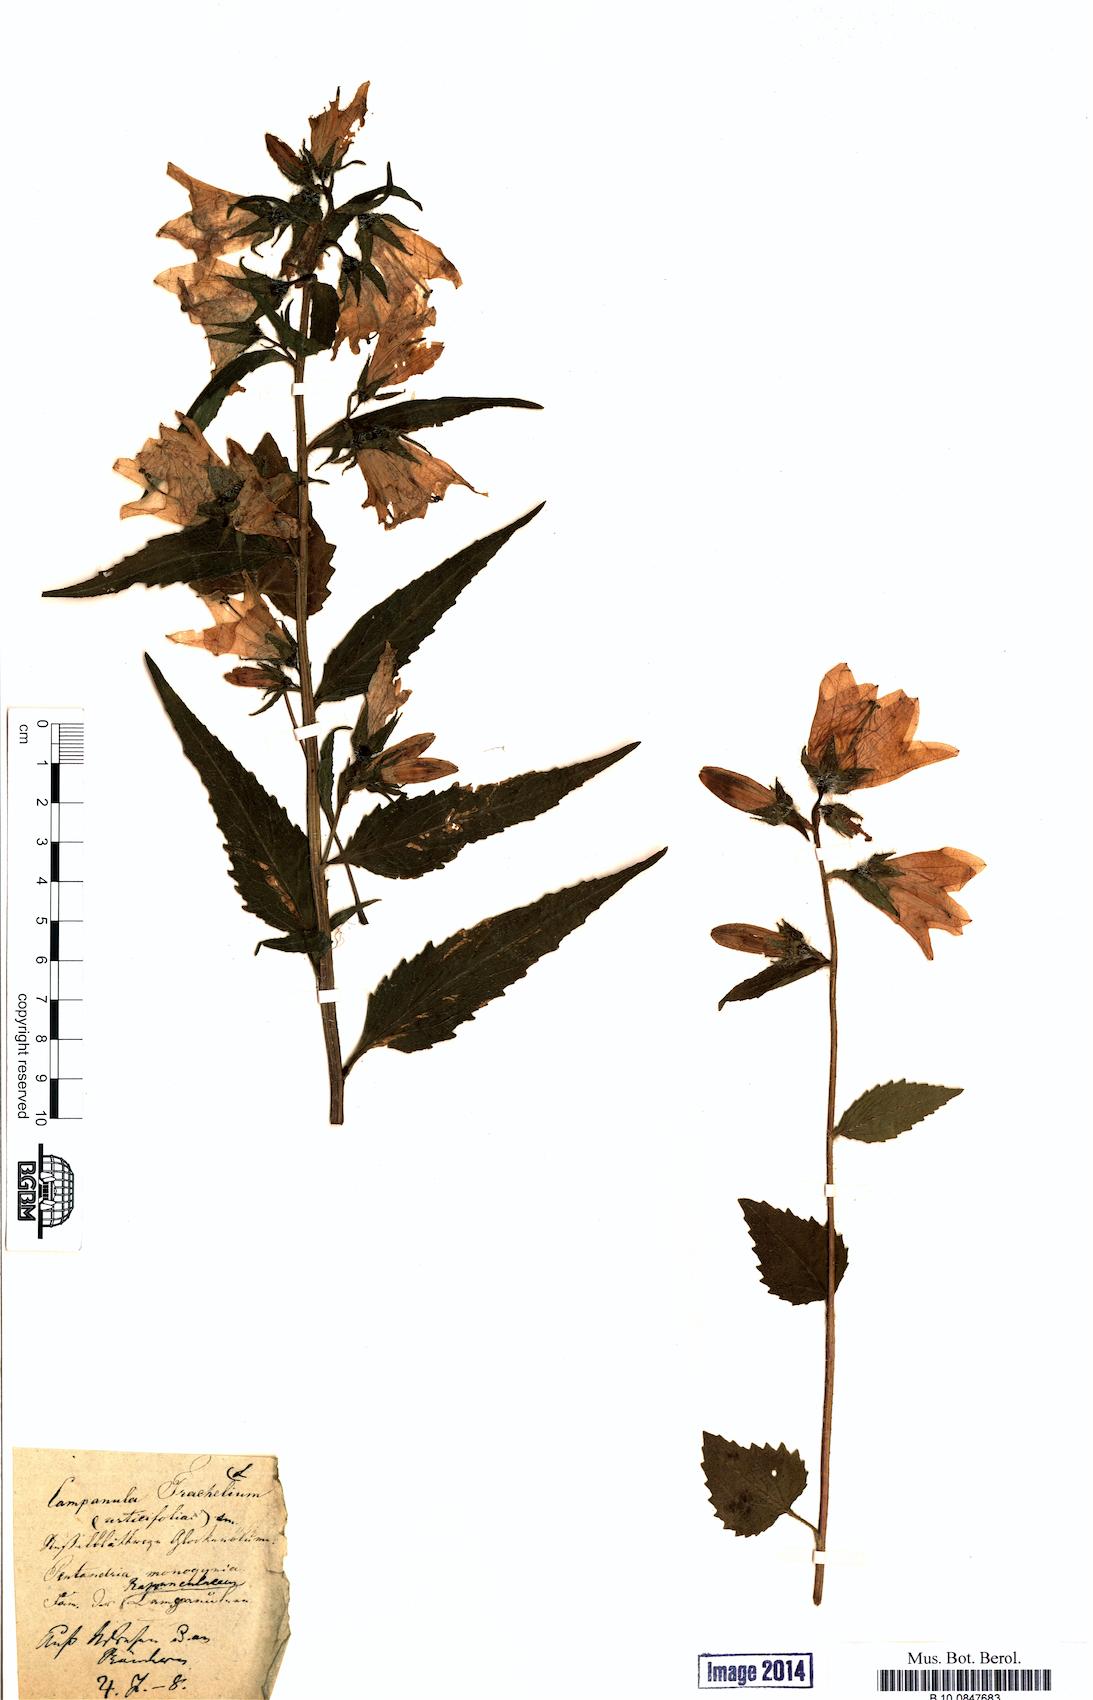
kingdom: Plantae
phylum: Tracheophyta
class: Magnoliopsida
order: Asterales
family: Campanulaceae
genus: Campanula
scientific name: Campanula trachelium
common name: Nettle-leaved bellflower
